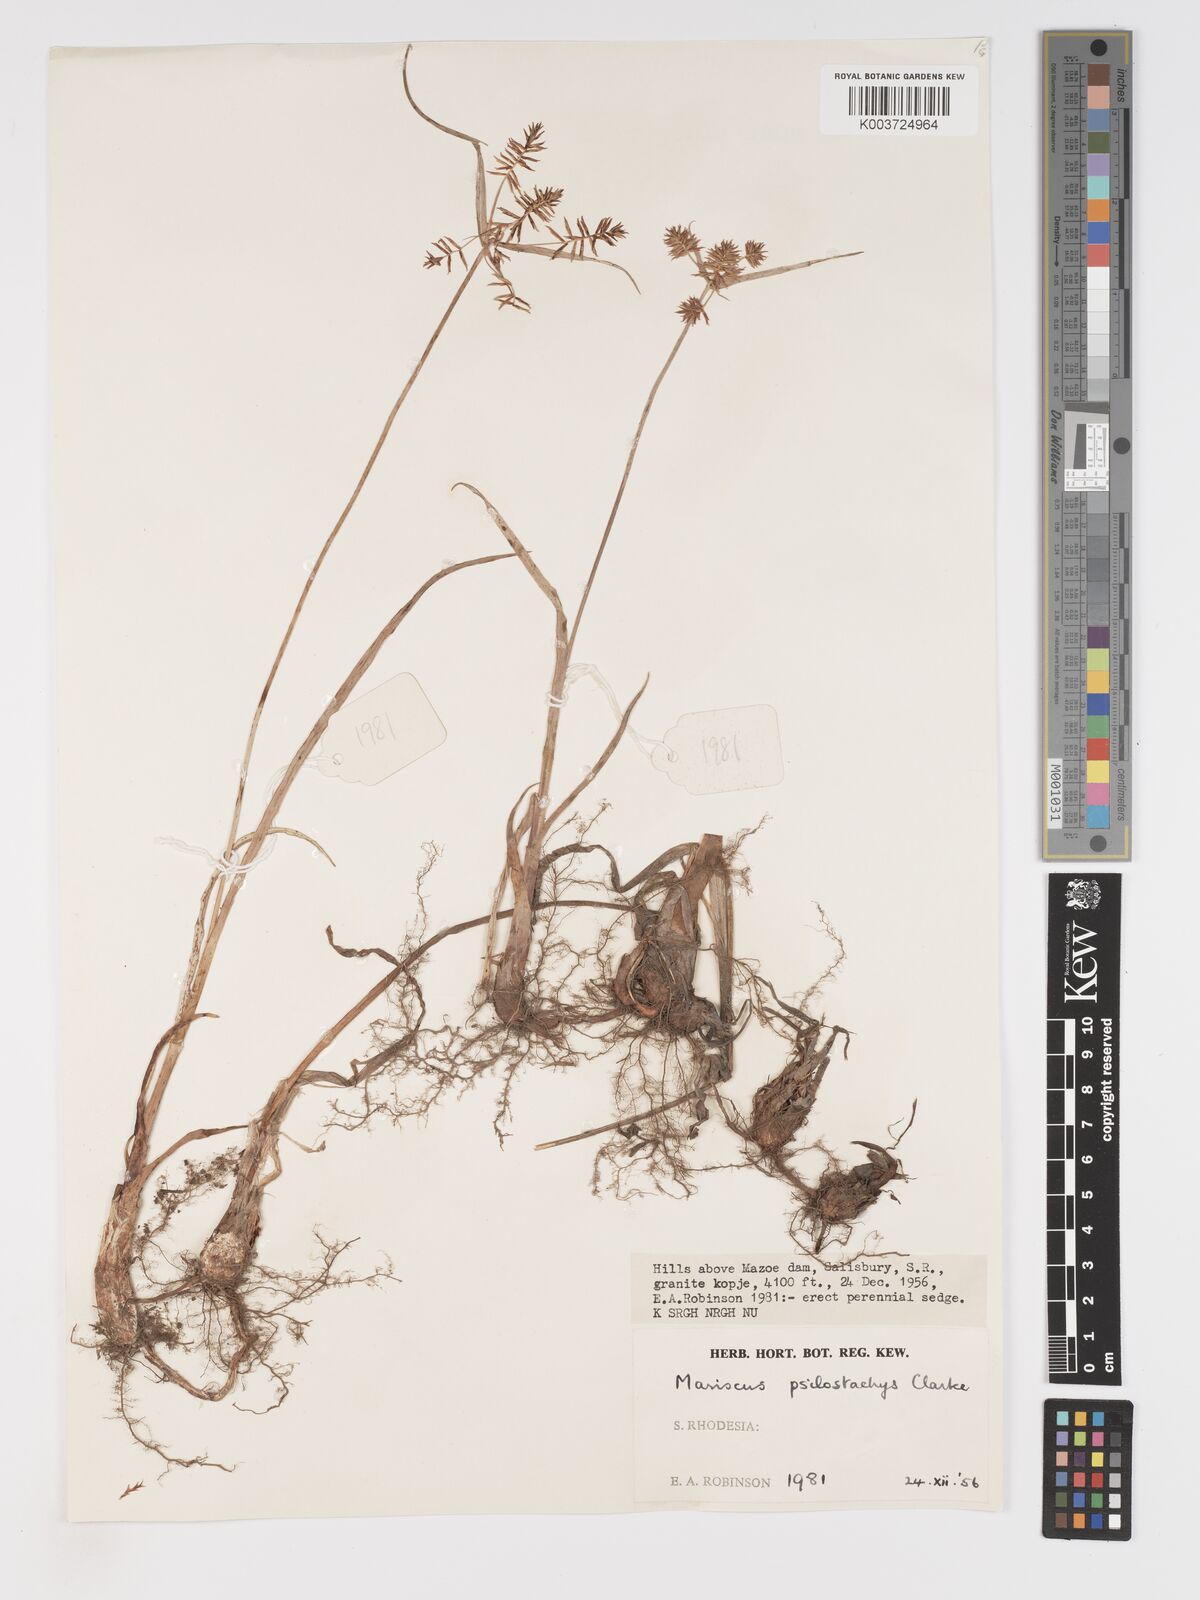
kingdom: Plantae
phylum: Tracheophyta
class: Liliopsida
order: Poales
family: Cyperaceae
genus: Cyperus
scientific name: Cyperus trigonellus
